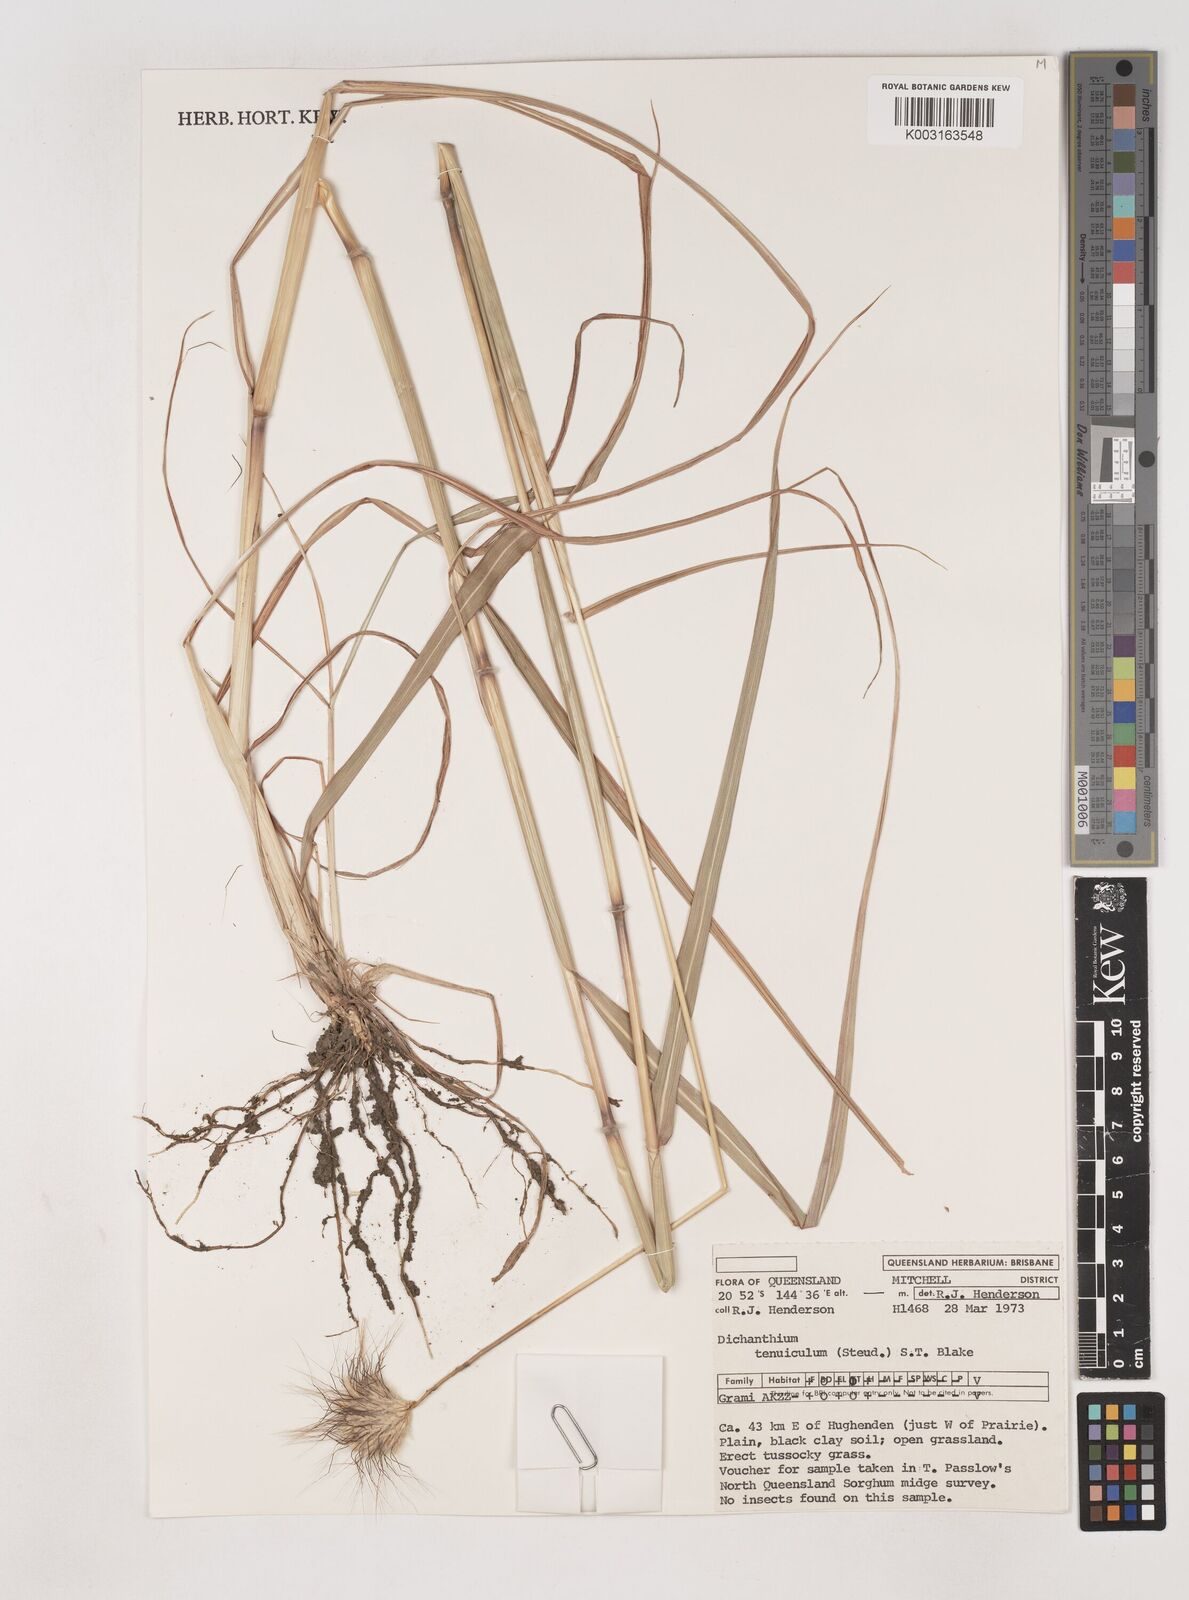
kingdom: Plantae
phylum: Tracheophyta
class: Liliopsida
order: Poales
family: Poaceae
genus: Dichanthium
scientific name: Dichanthium sericeum
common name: Silky bluestem
